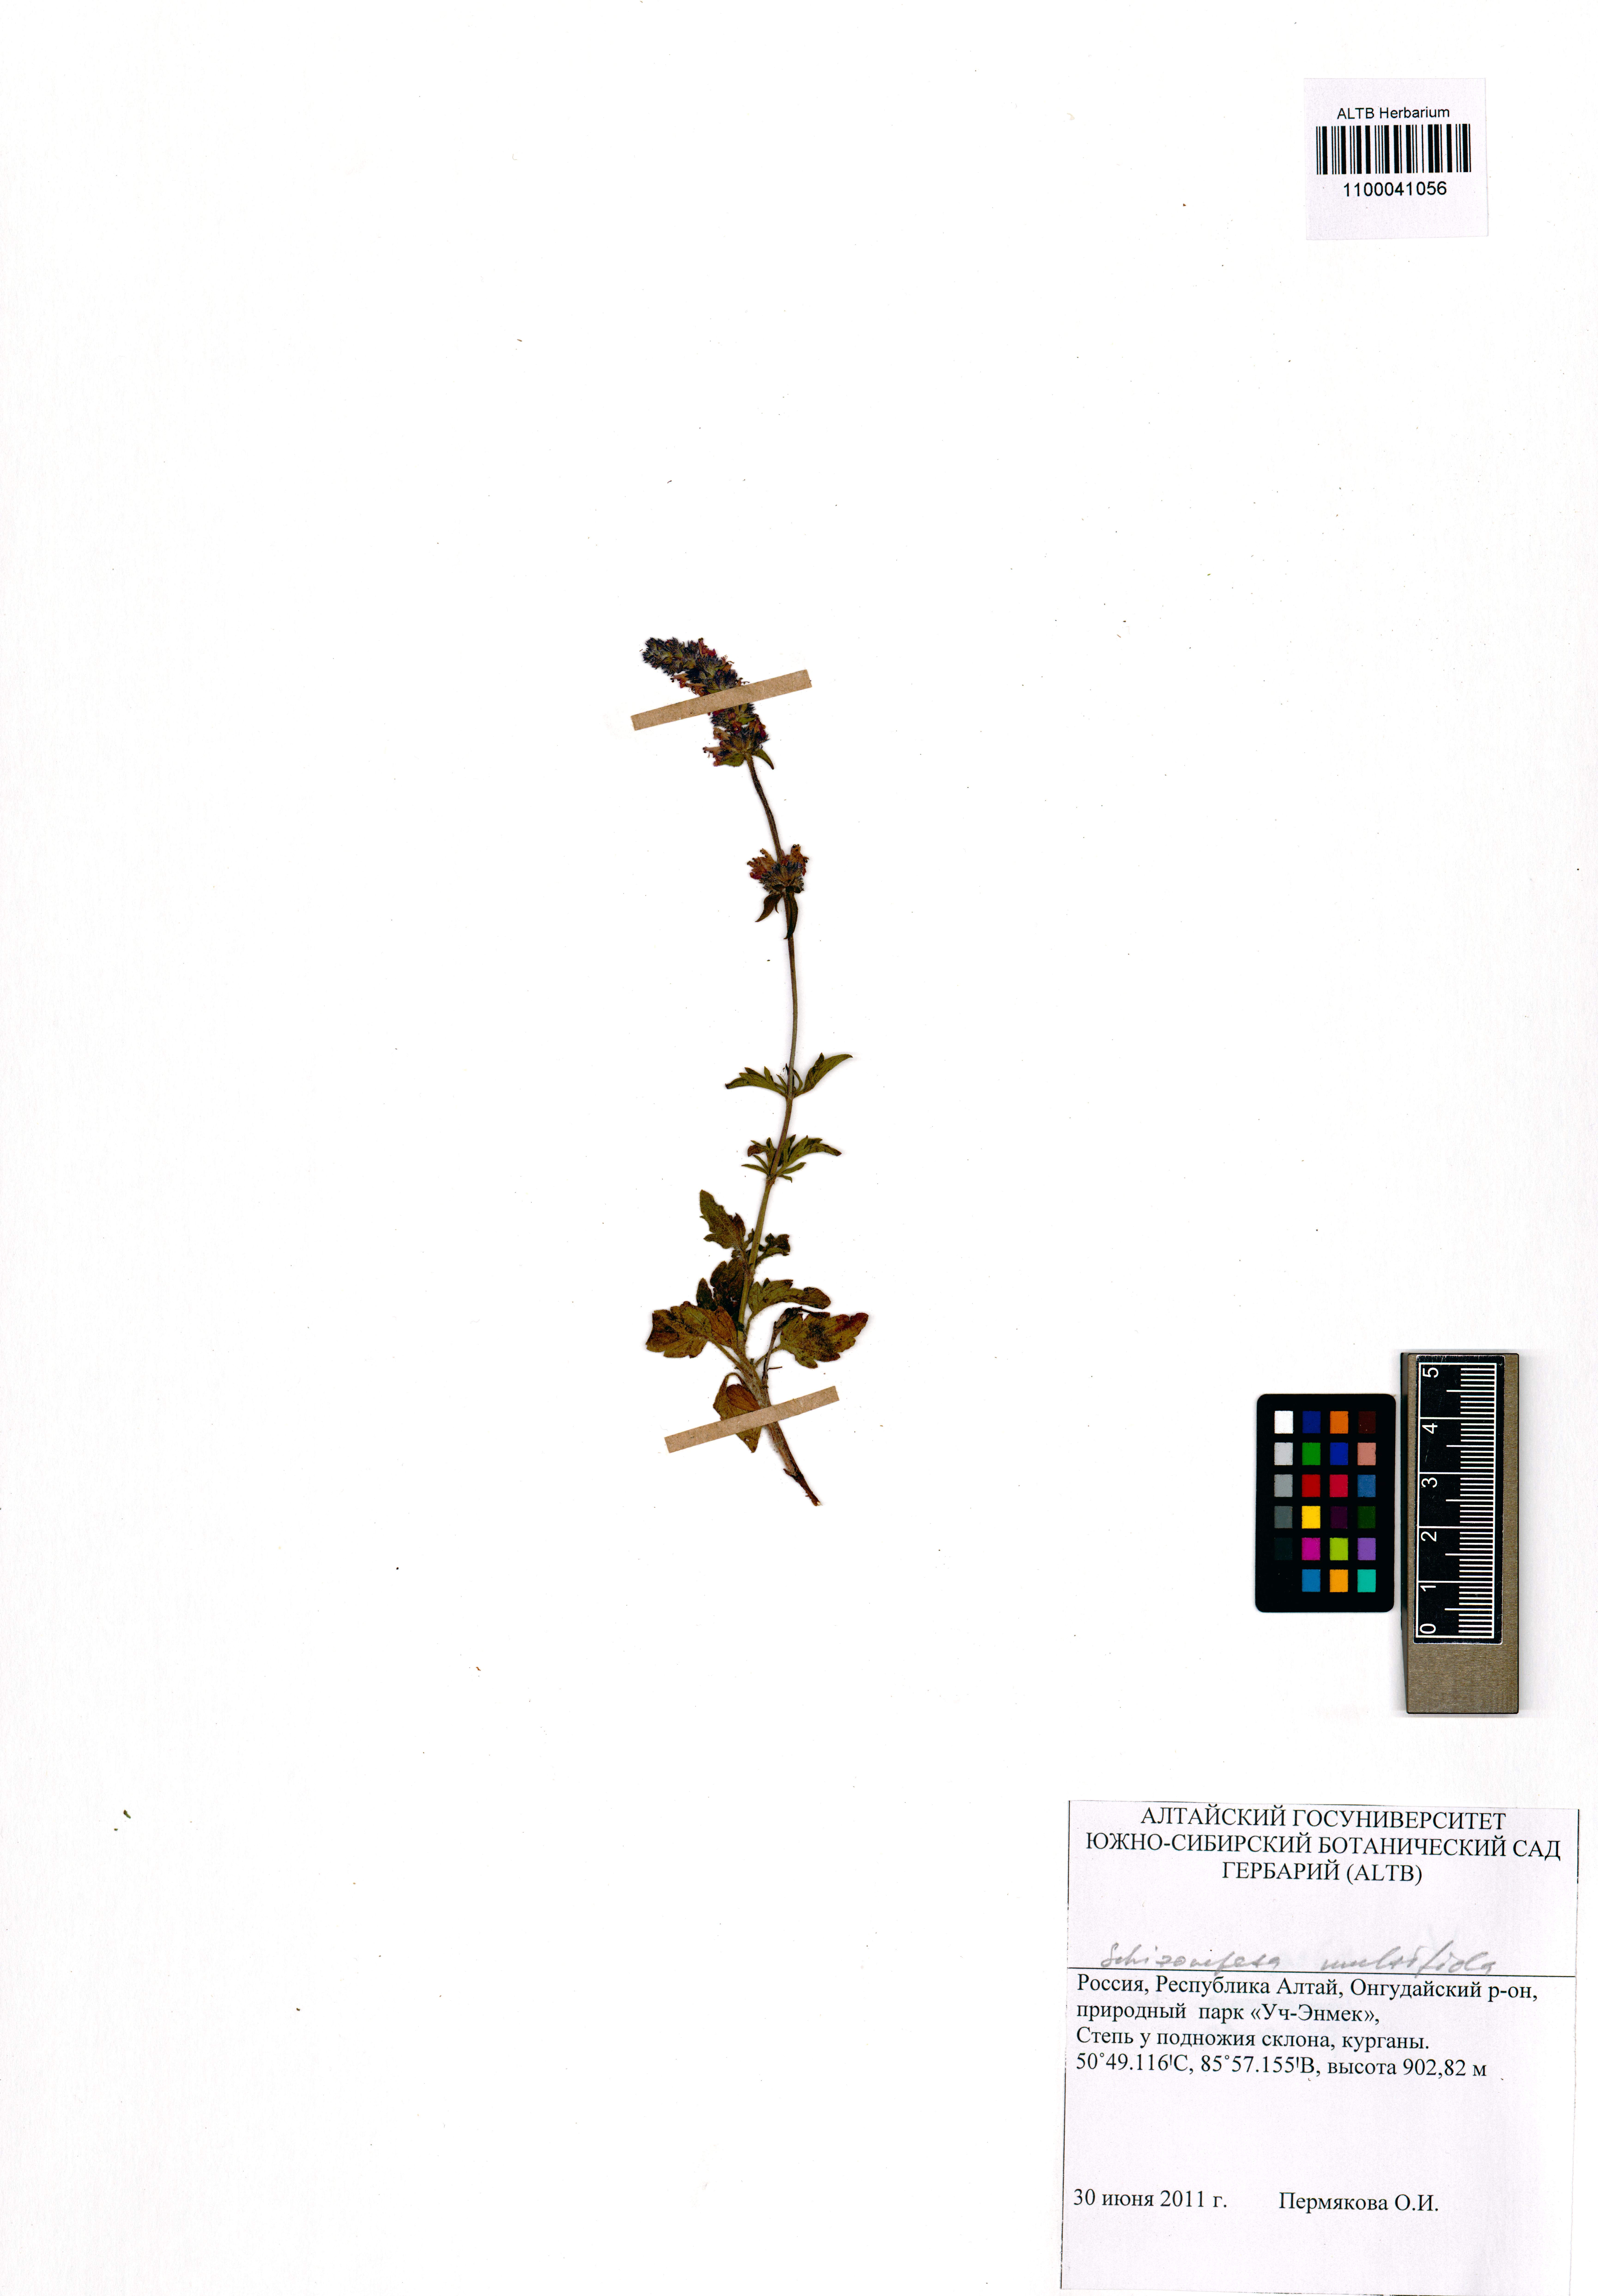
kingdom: Plantae
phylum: Tracheophyta
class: Magnoliopsida
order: Lamiales
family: Lamiaceae
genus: Nepeta
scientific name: Nepeta multifida
